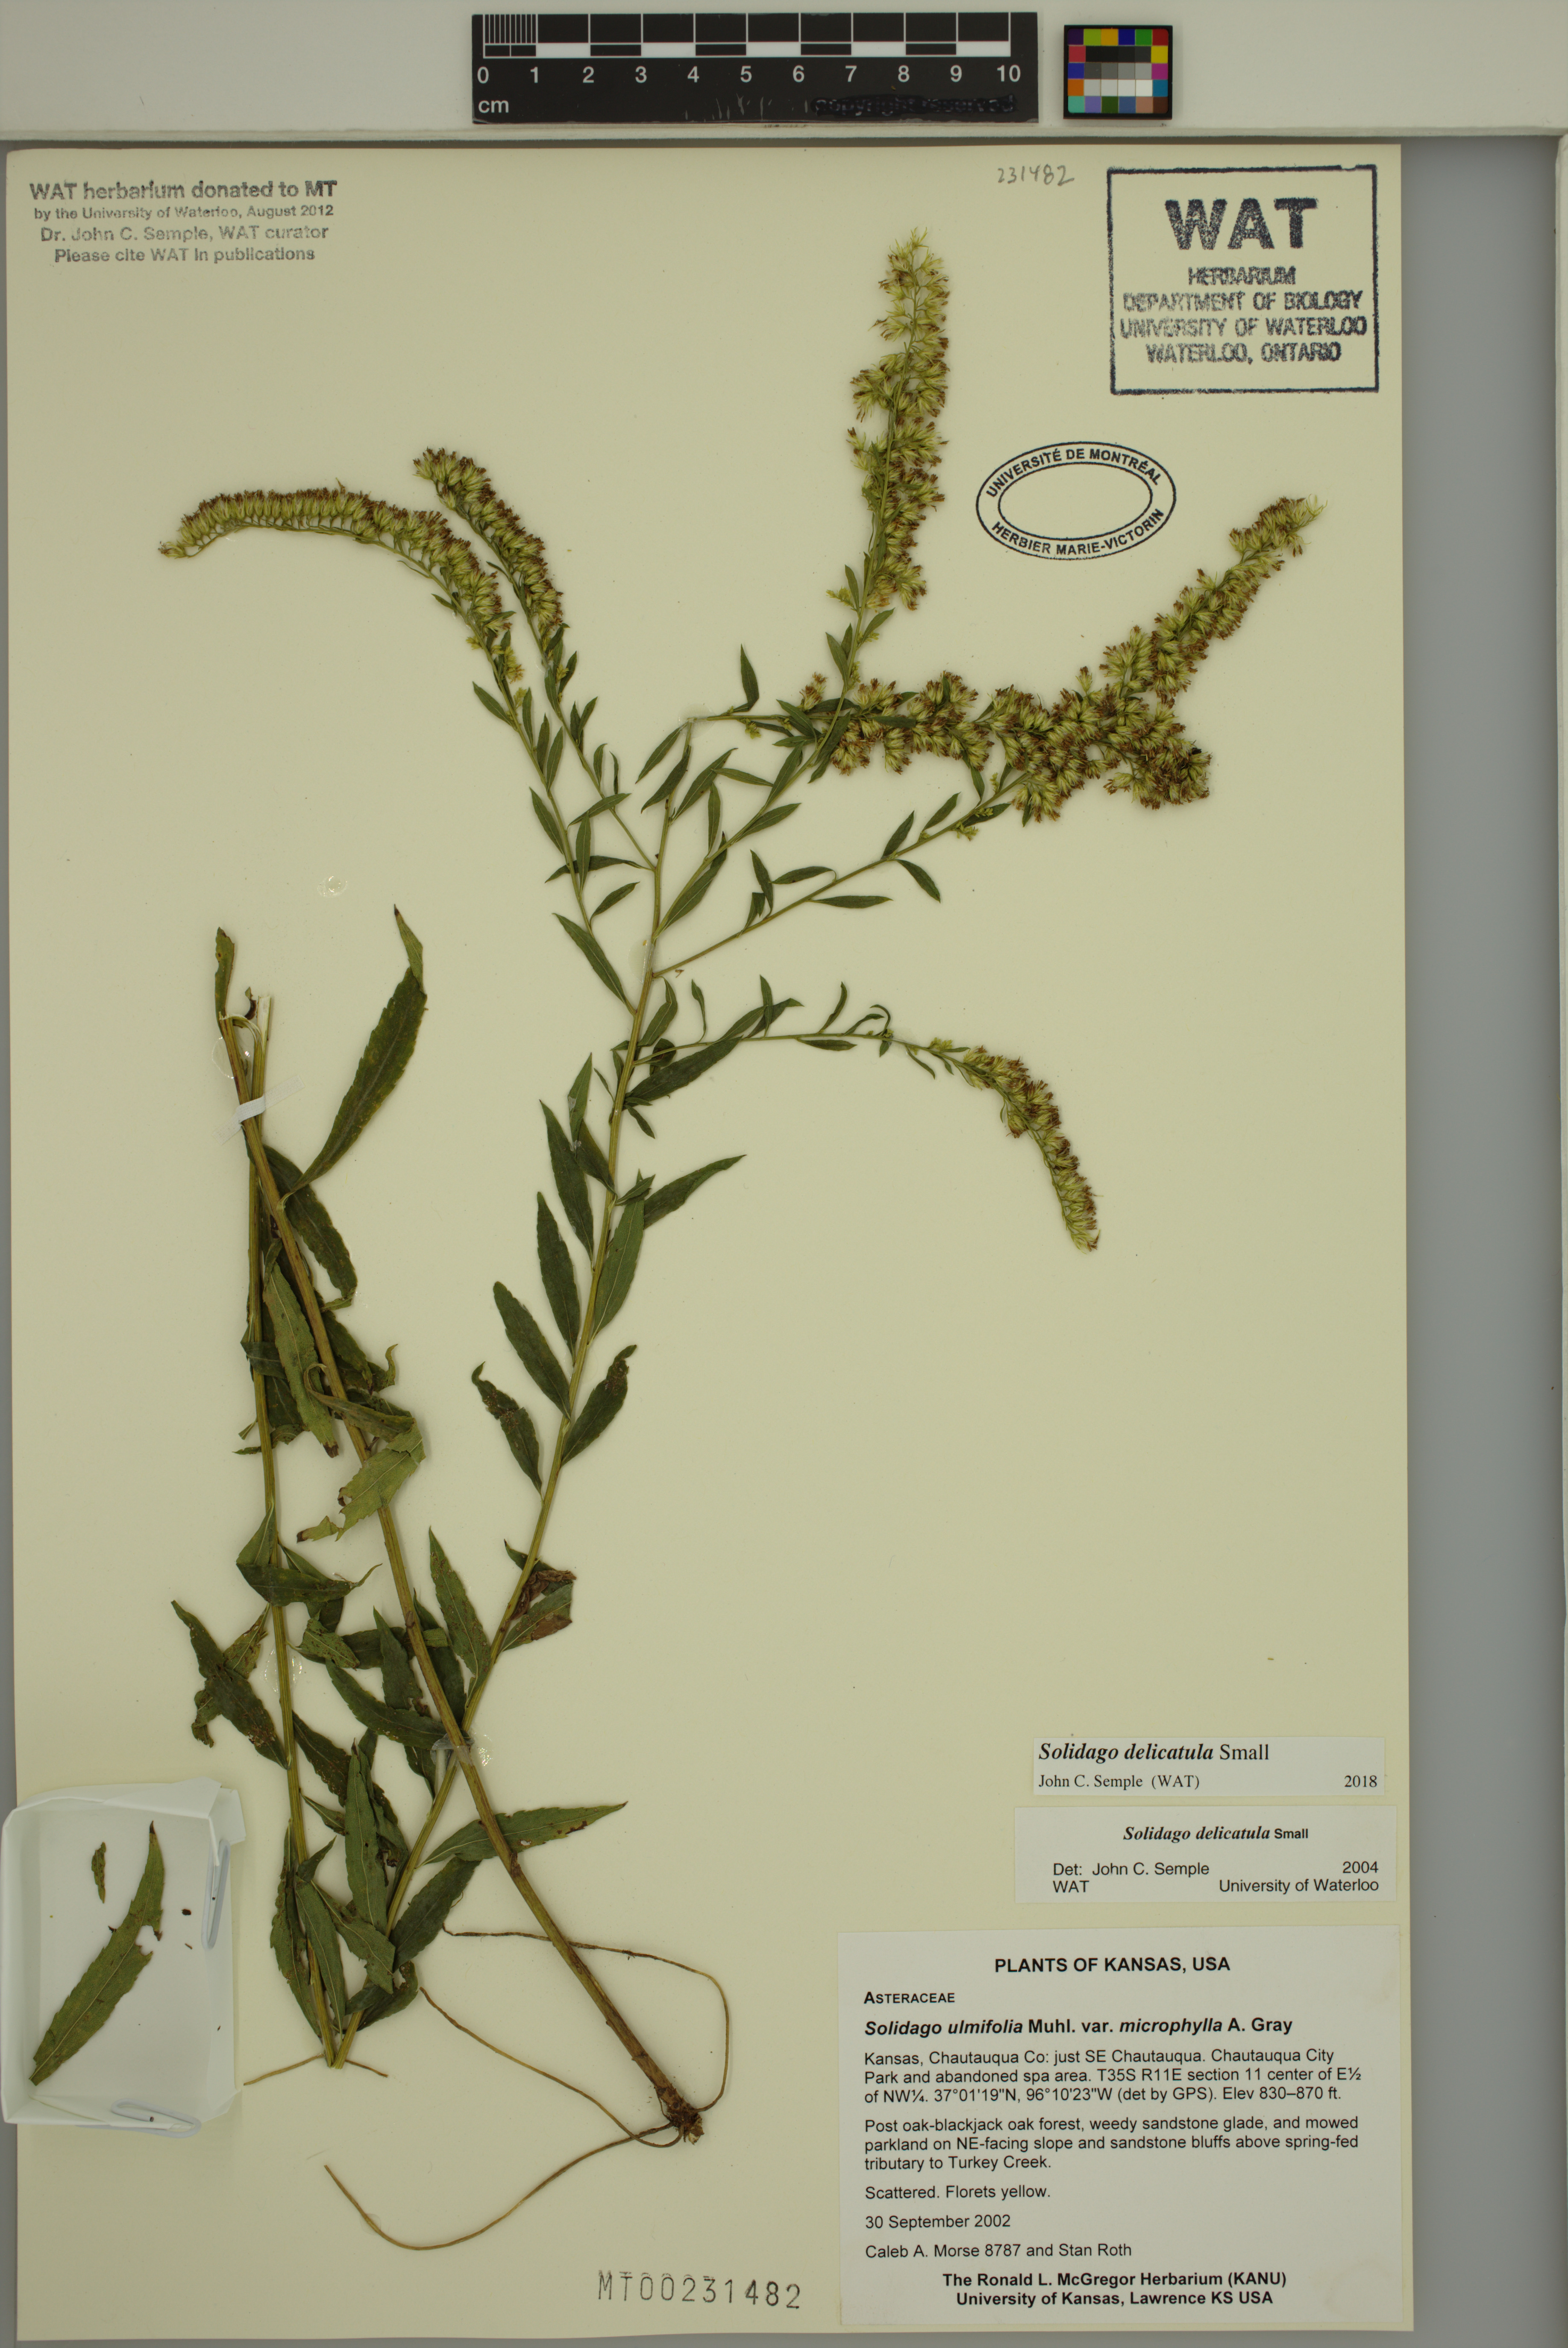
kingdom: Plantae
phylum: Tracheophyta
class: Magnoliopsida
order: Asterales
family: Asteraceae
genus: Solidago
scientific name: Solidago delicatula
